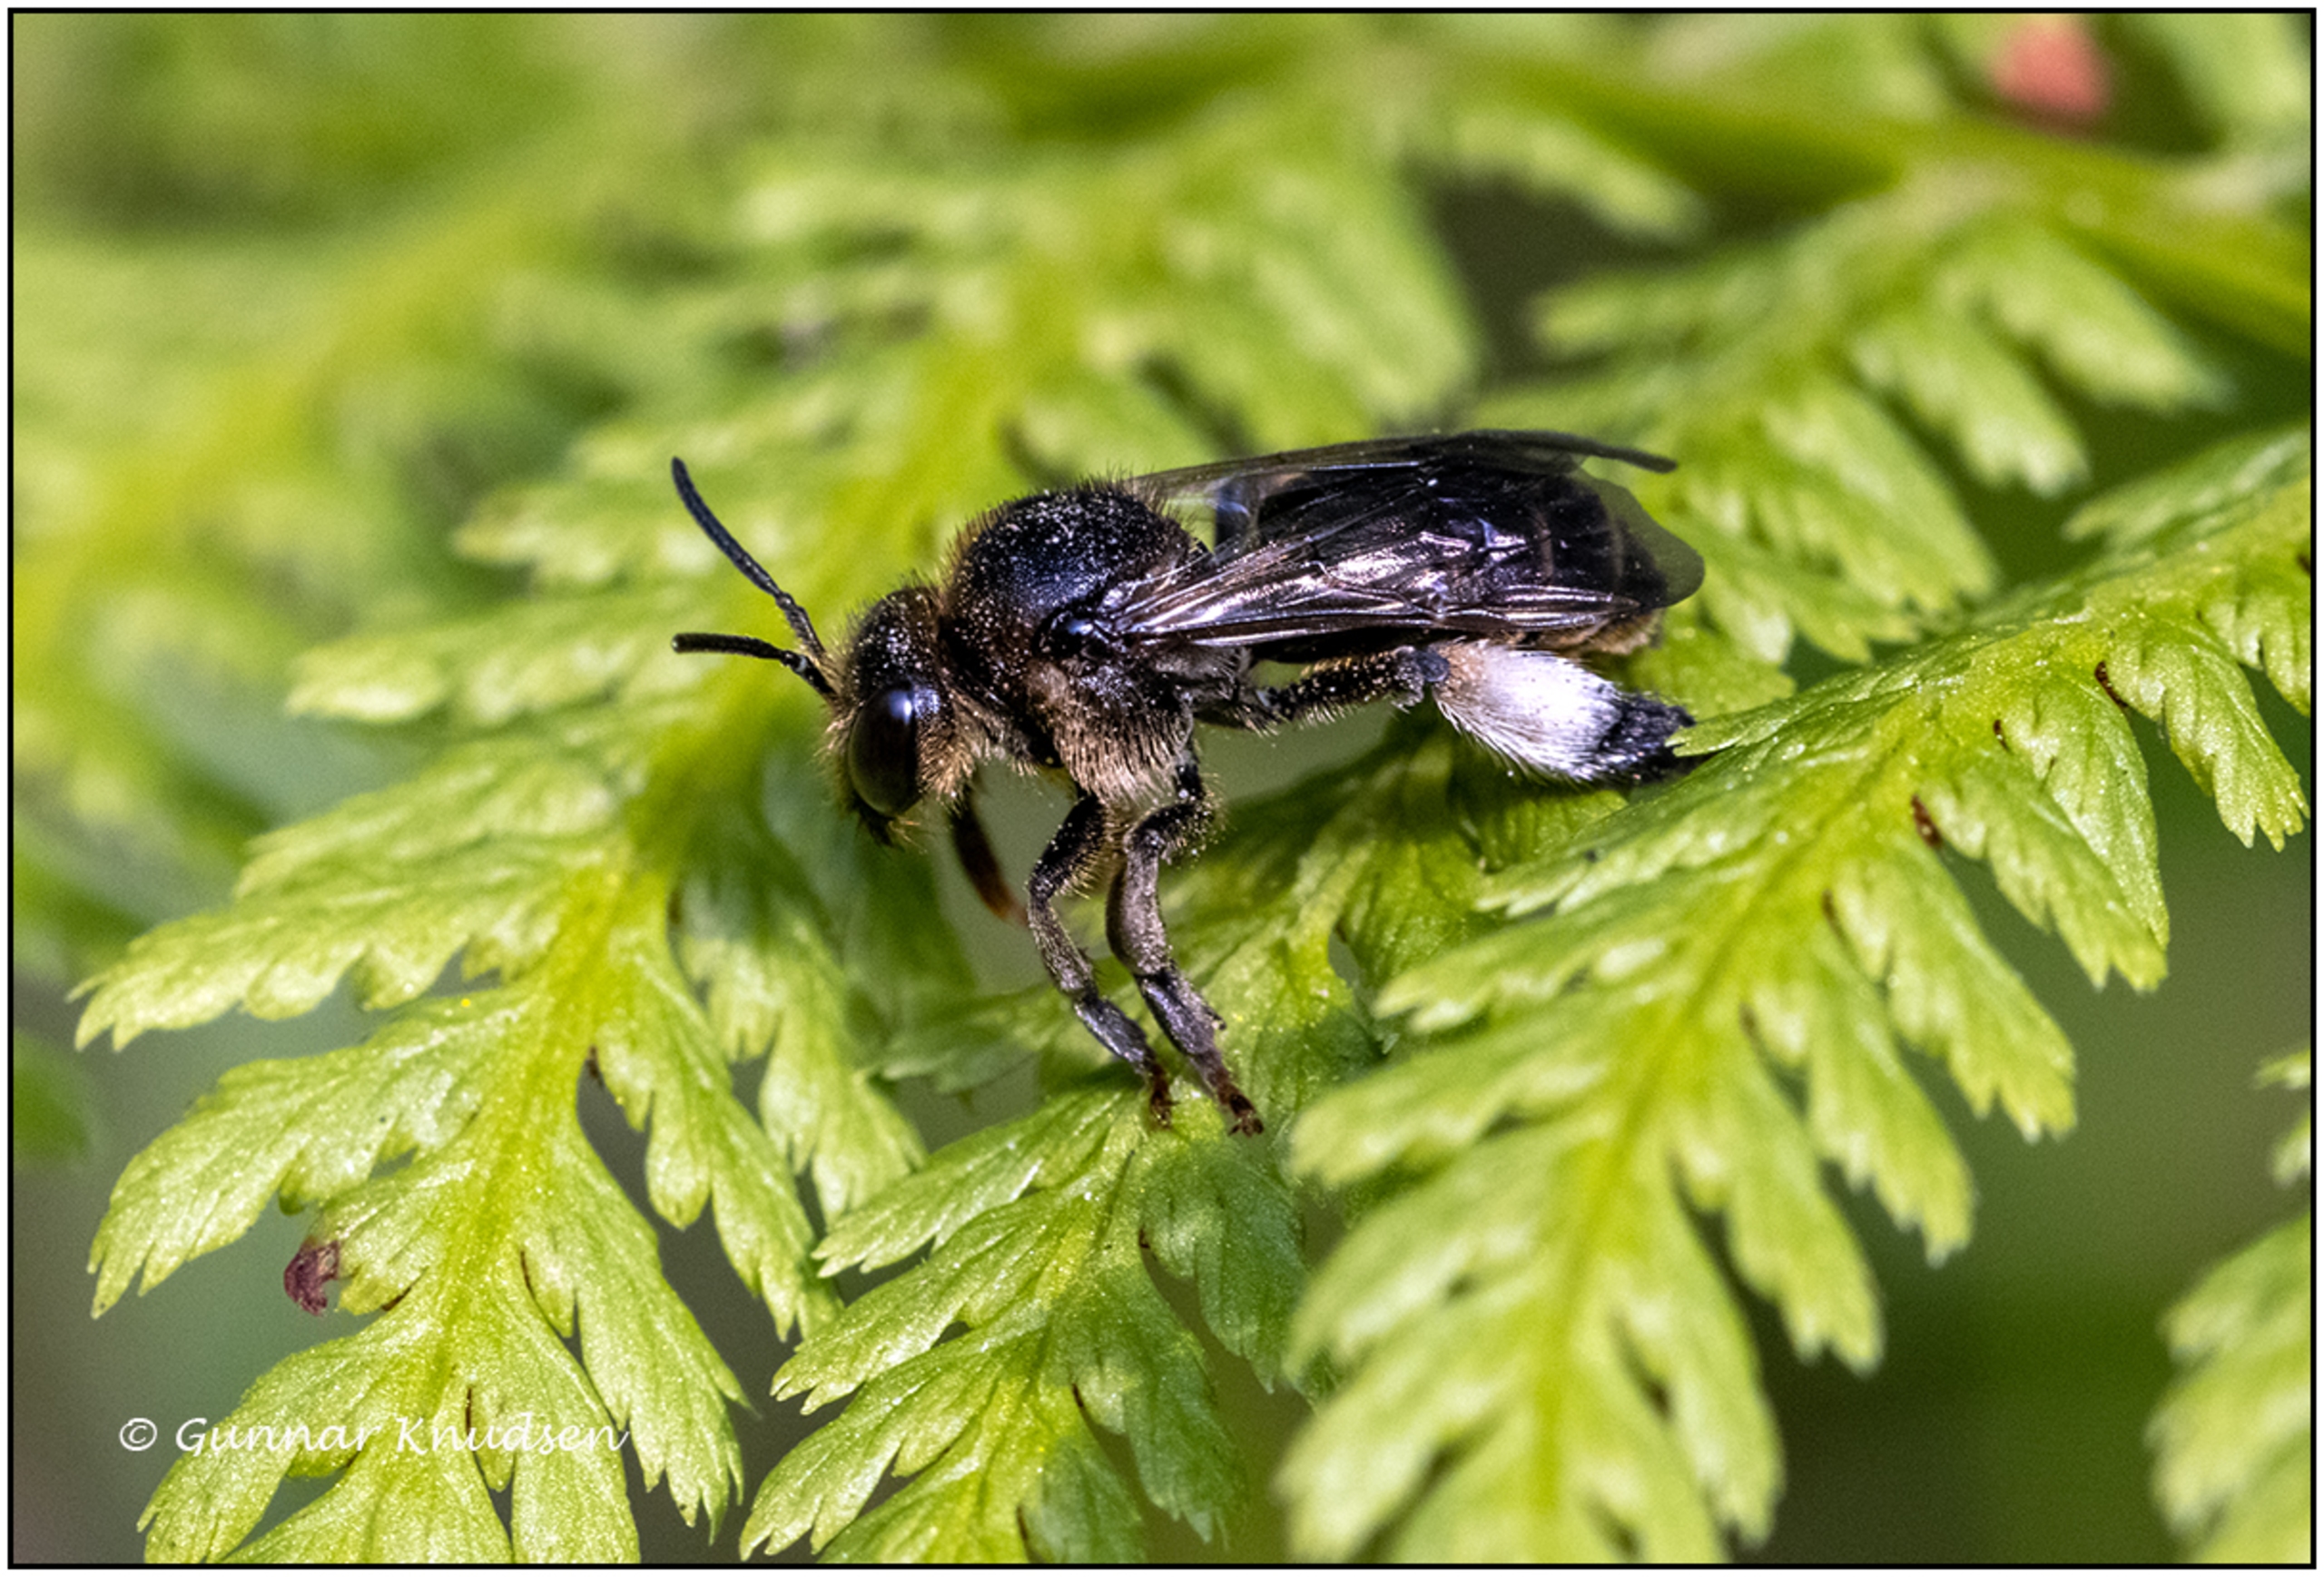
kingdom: Animalia
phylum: Arthropoda
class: Insecta
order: Hymenoptera
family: Melittidae
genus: Macropis
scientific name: Macropis europaea
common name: Hvidbenet oliebi
